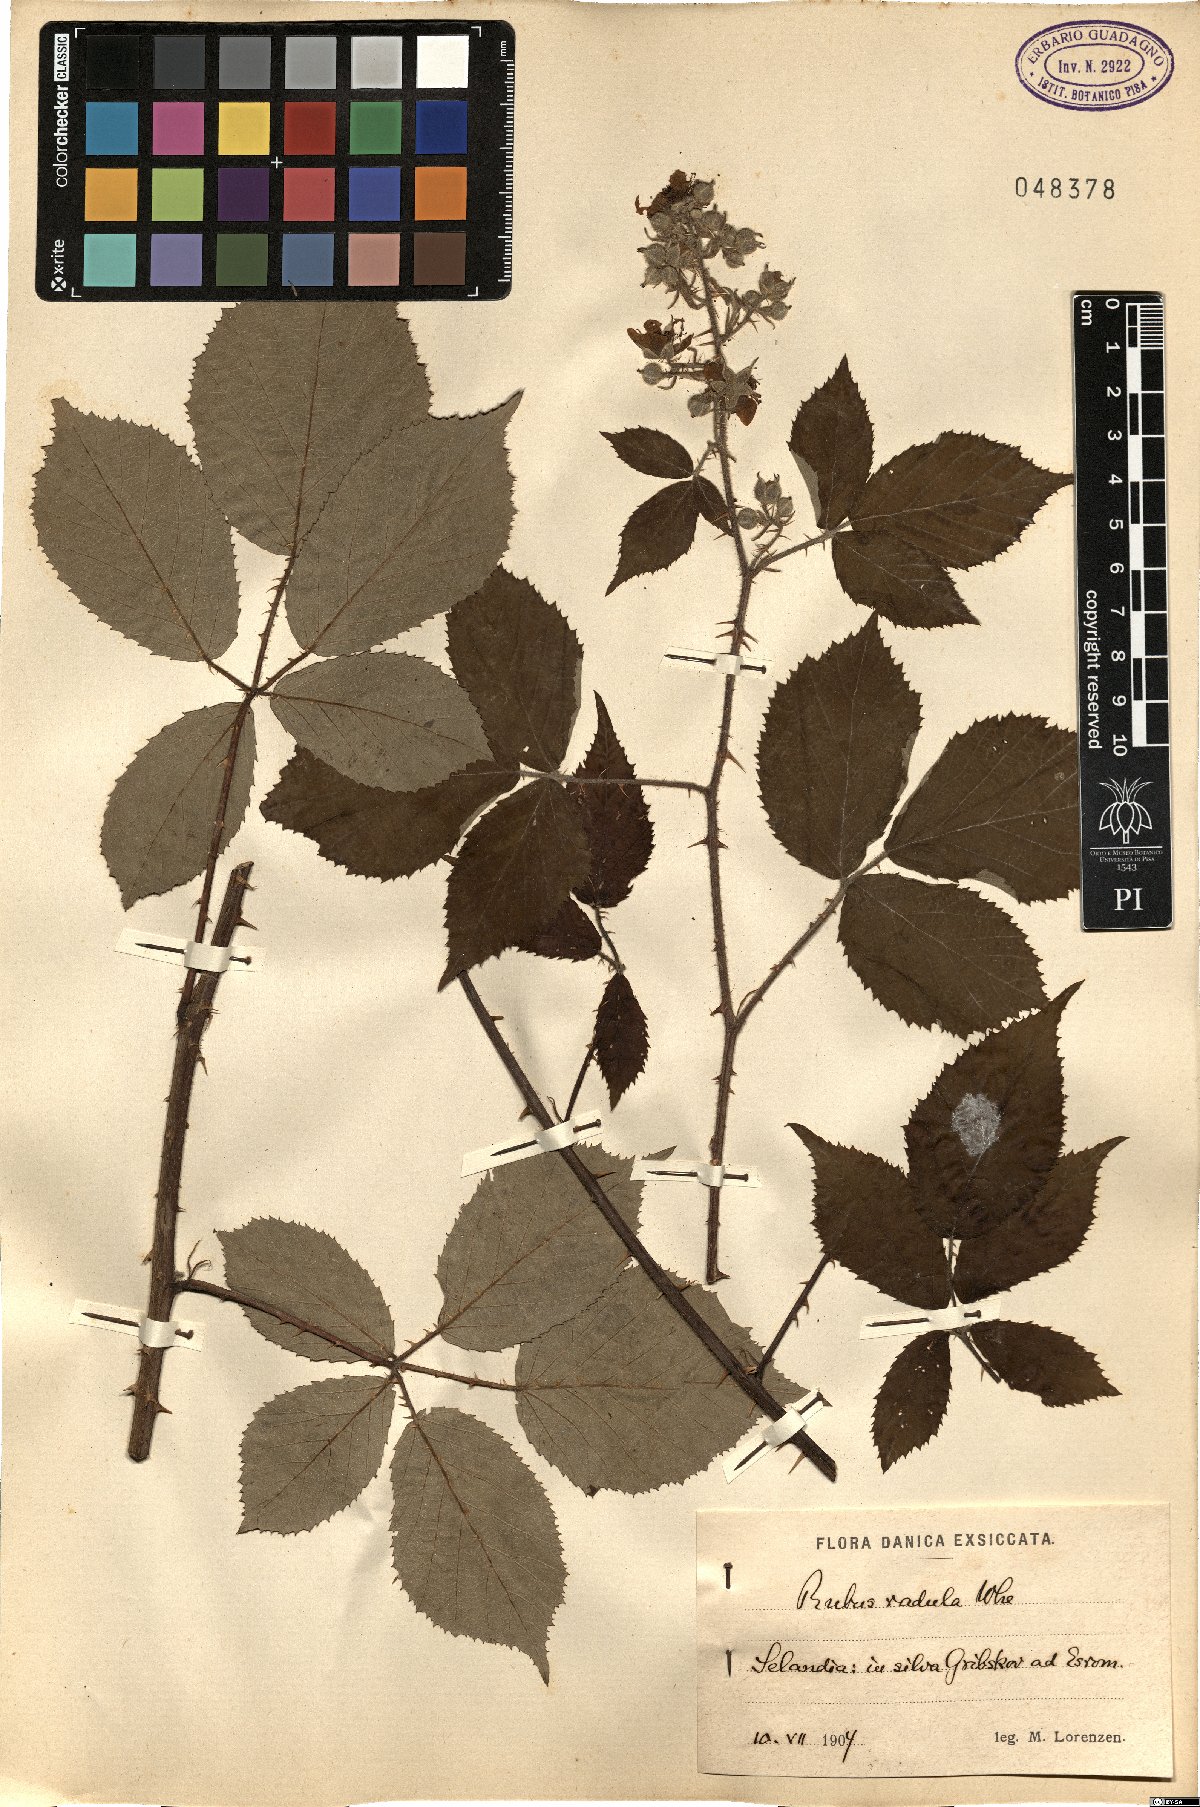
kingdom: Plantae
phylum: Tracheophyta
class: Magnoliopsida
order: Rosales
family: Rosaceae
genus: Rubus
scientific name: Rubus radula
